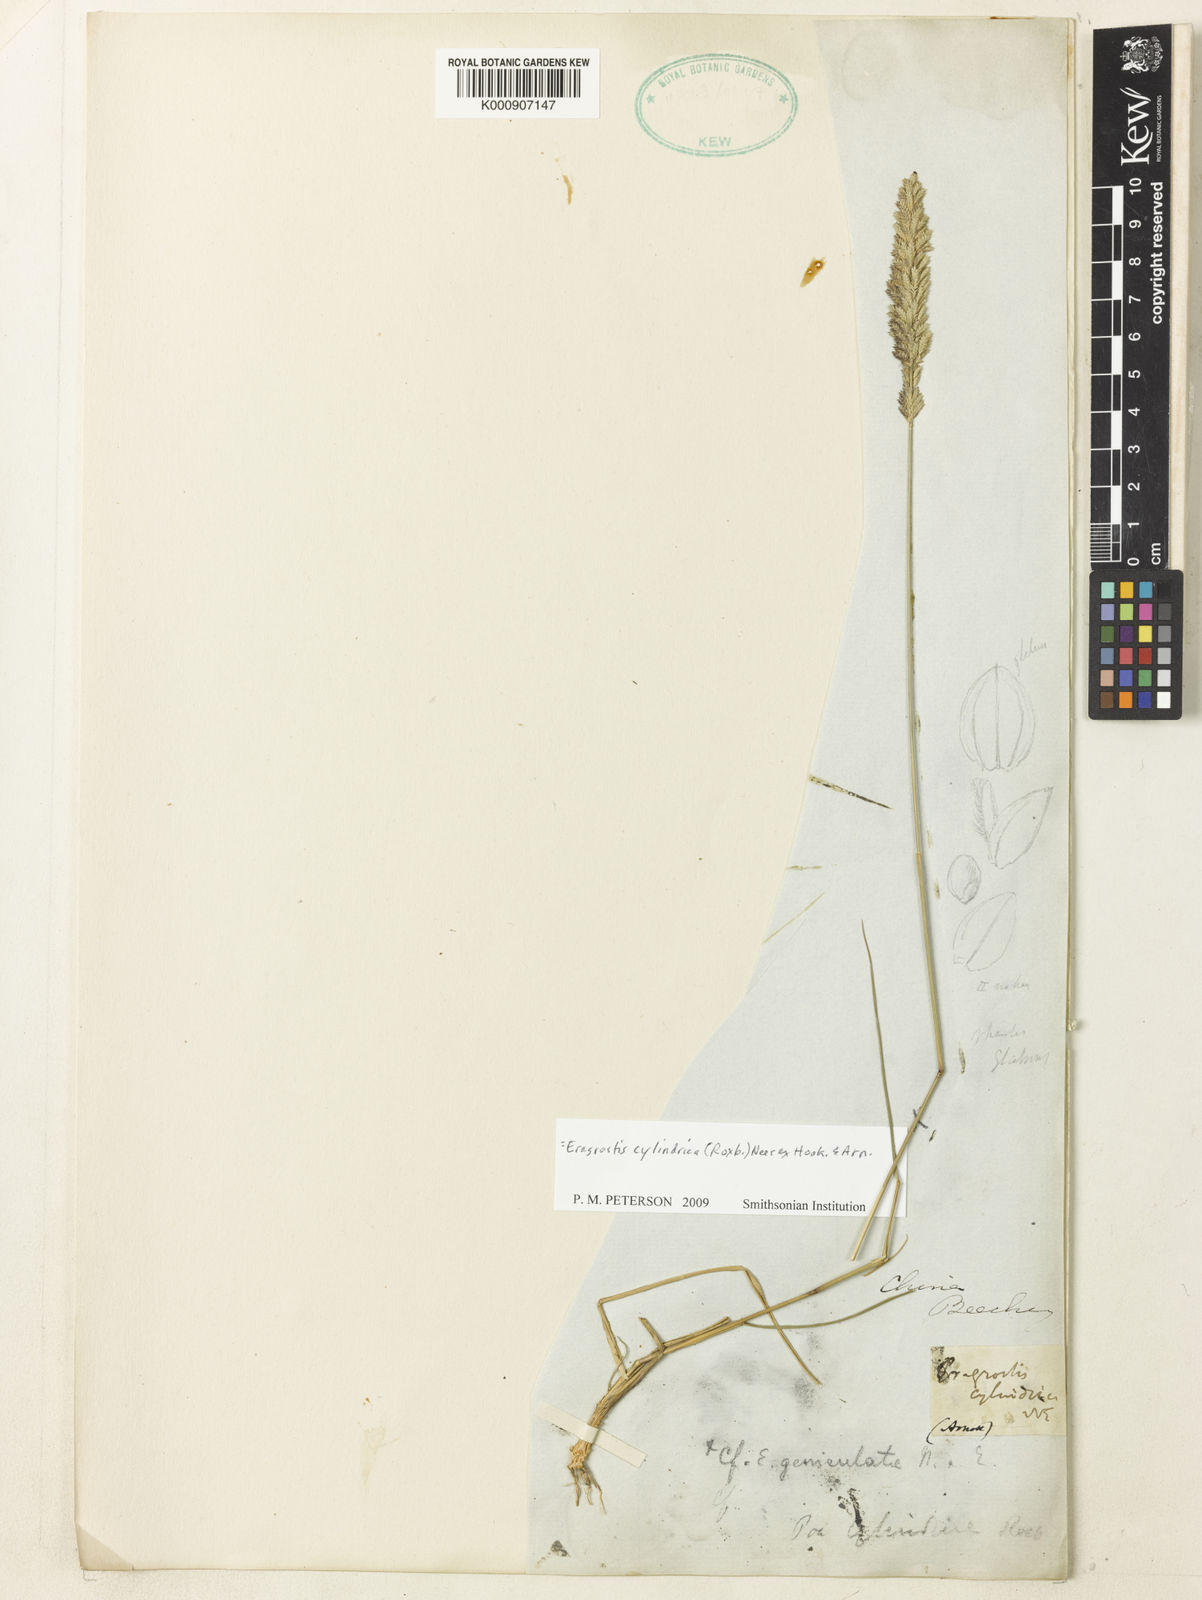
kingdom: Plantae
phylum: Tracheophyta
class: Liliopsida
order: Poales
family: Poaceae
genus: Eragrostis
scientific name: Eragrostis cylindrica
